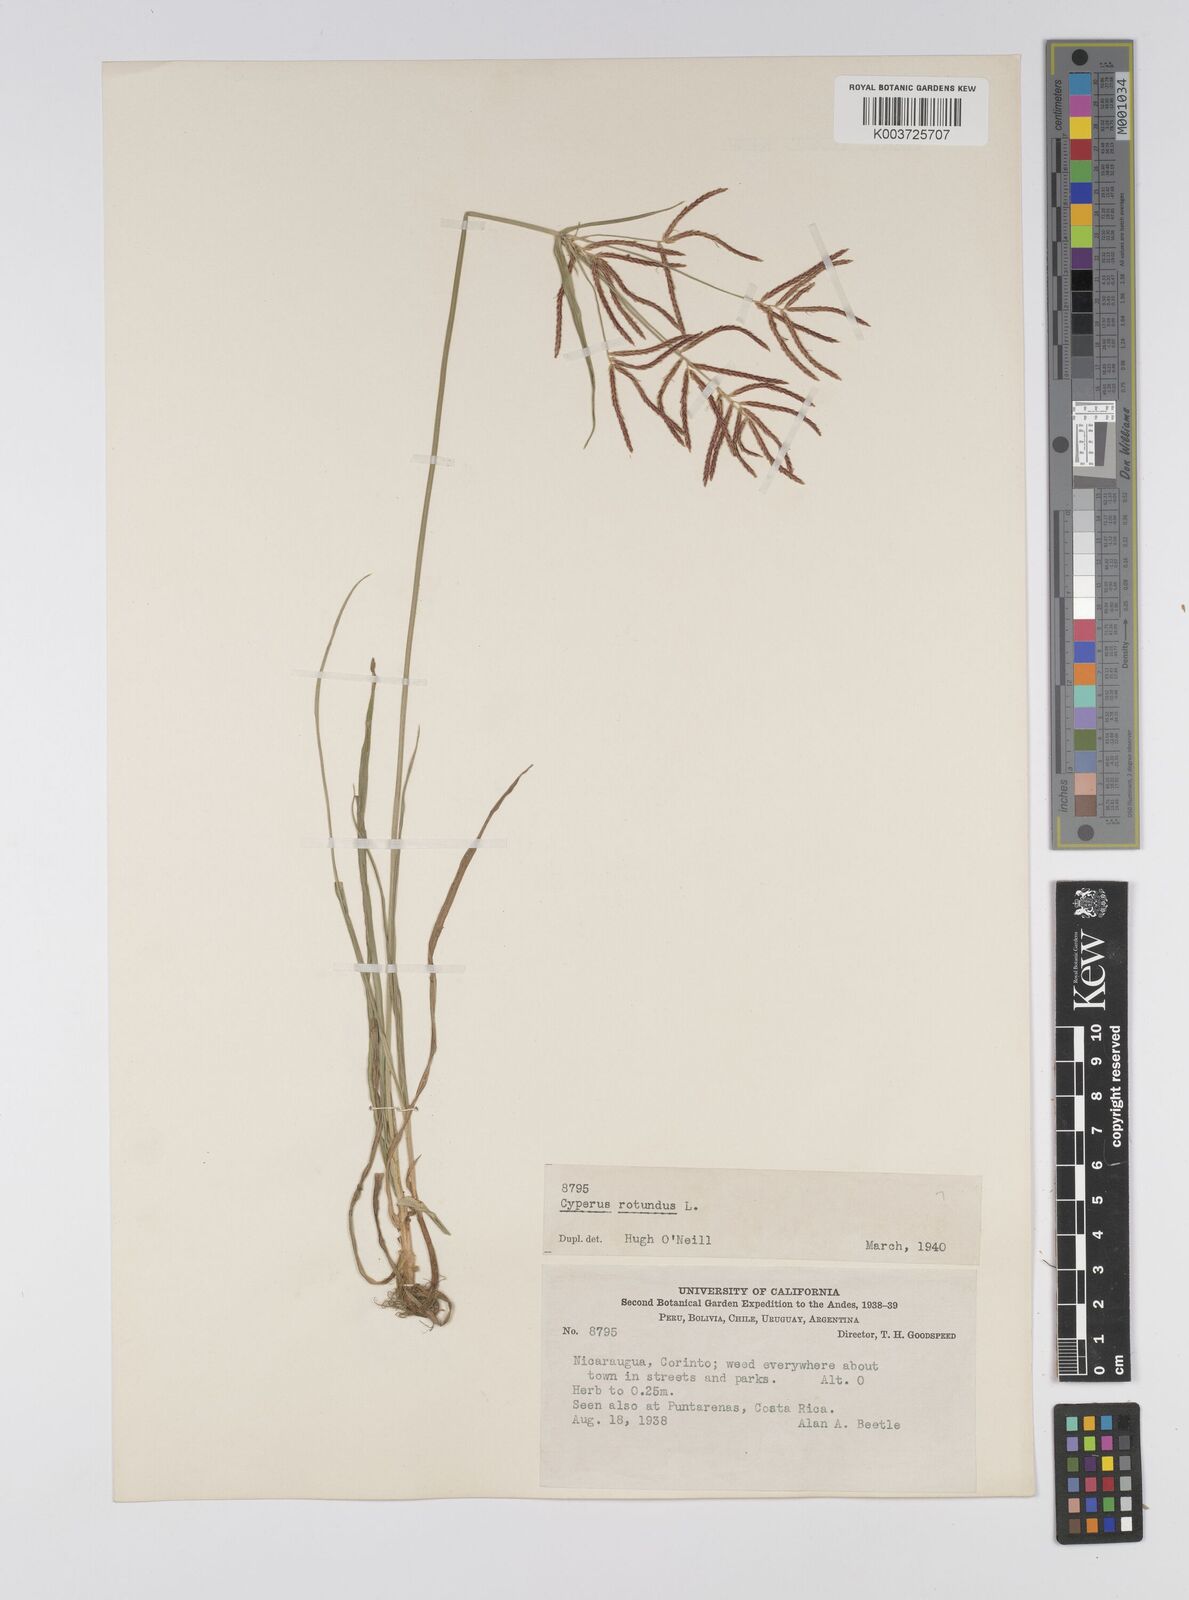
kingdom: Plantae
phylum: Tracheophyta
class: Liliopsida
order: Poales
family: Cyperaceae
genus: Cyperus
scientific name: Cyperus rotundus
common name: Nutgrass
